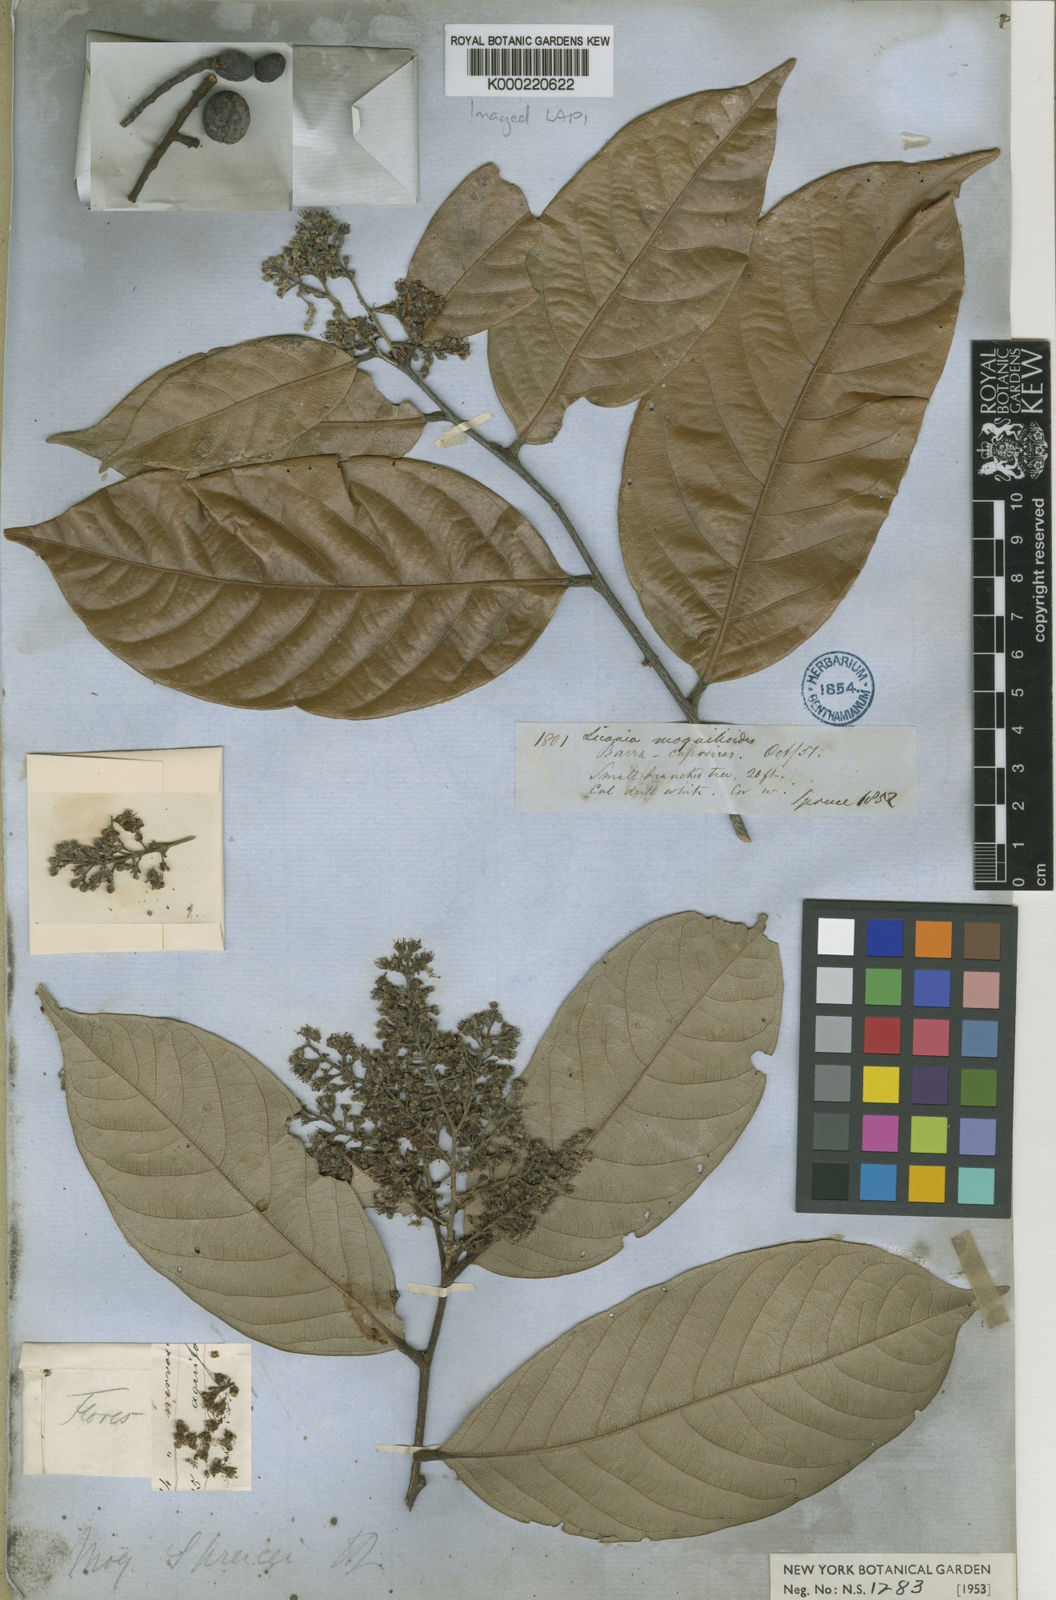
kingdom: Plantae
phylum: Tracheophyta
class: Magnoliopsida
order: Malpighiales
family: Chrysobalanaceae
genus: Leptobalanus
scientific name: Leptobalanus sprucei
